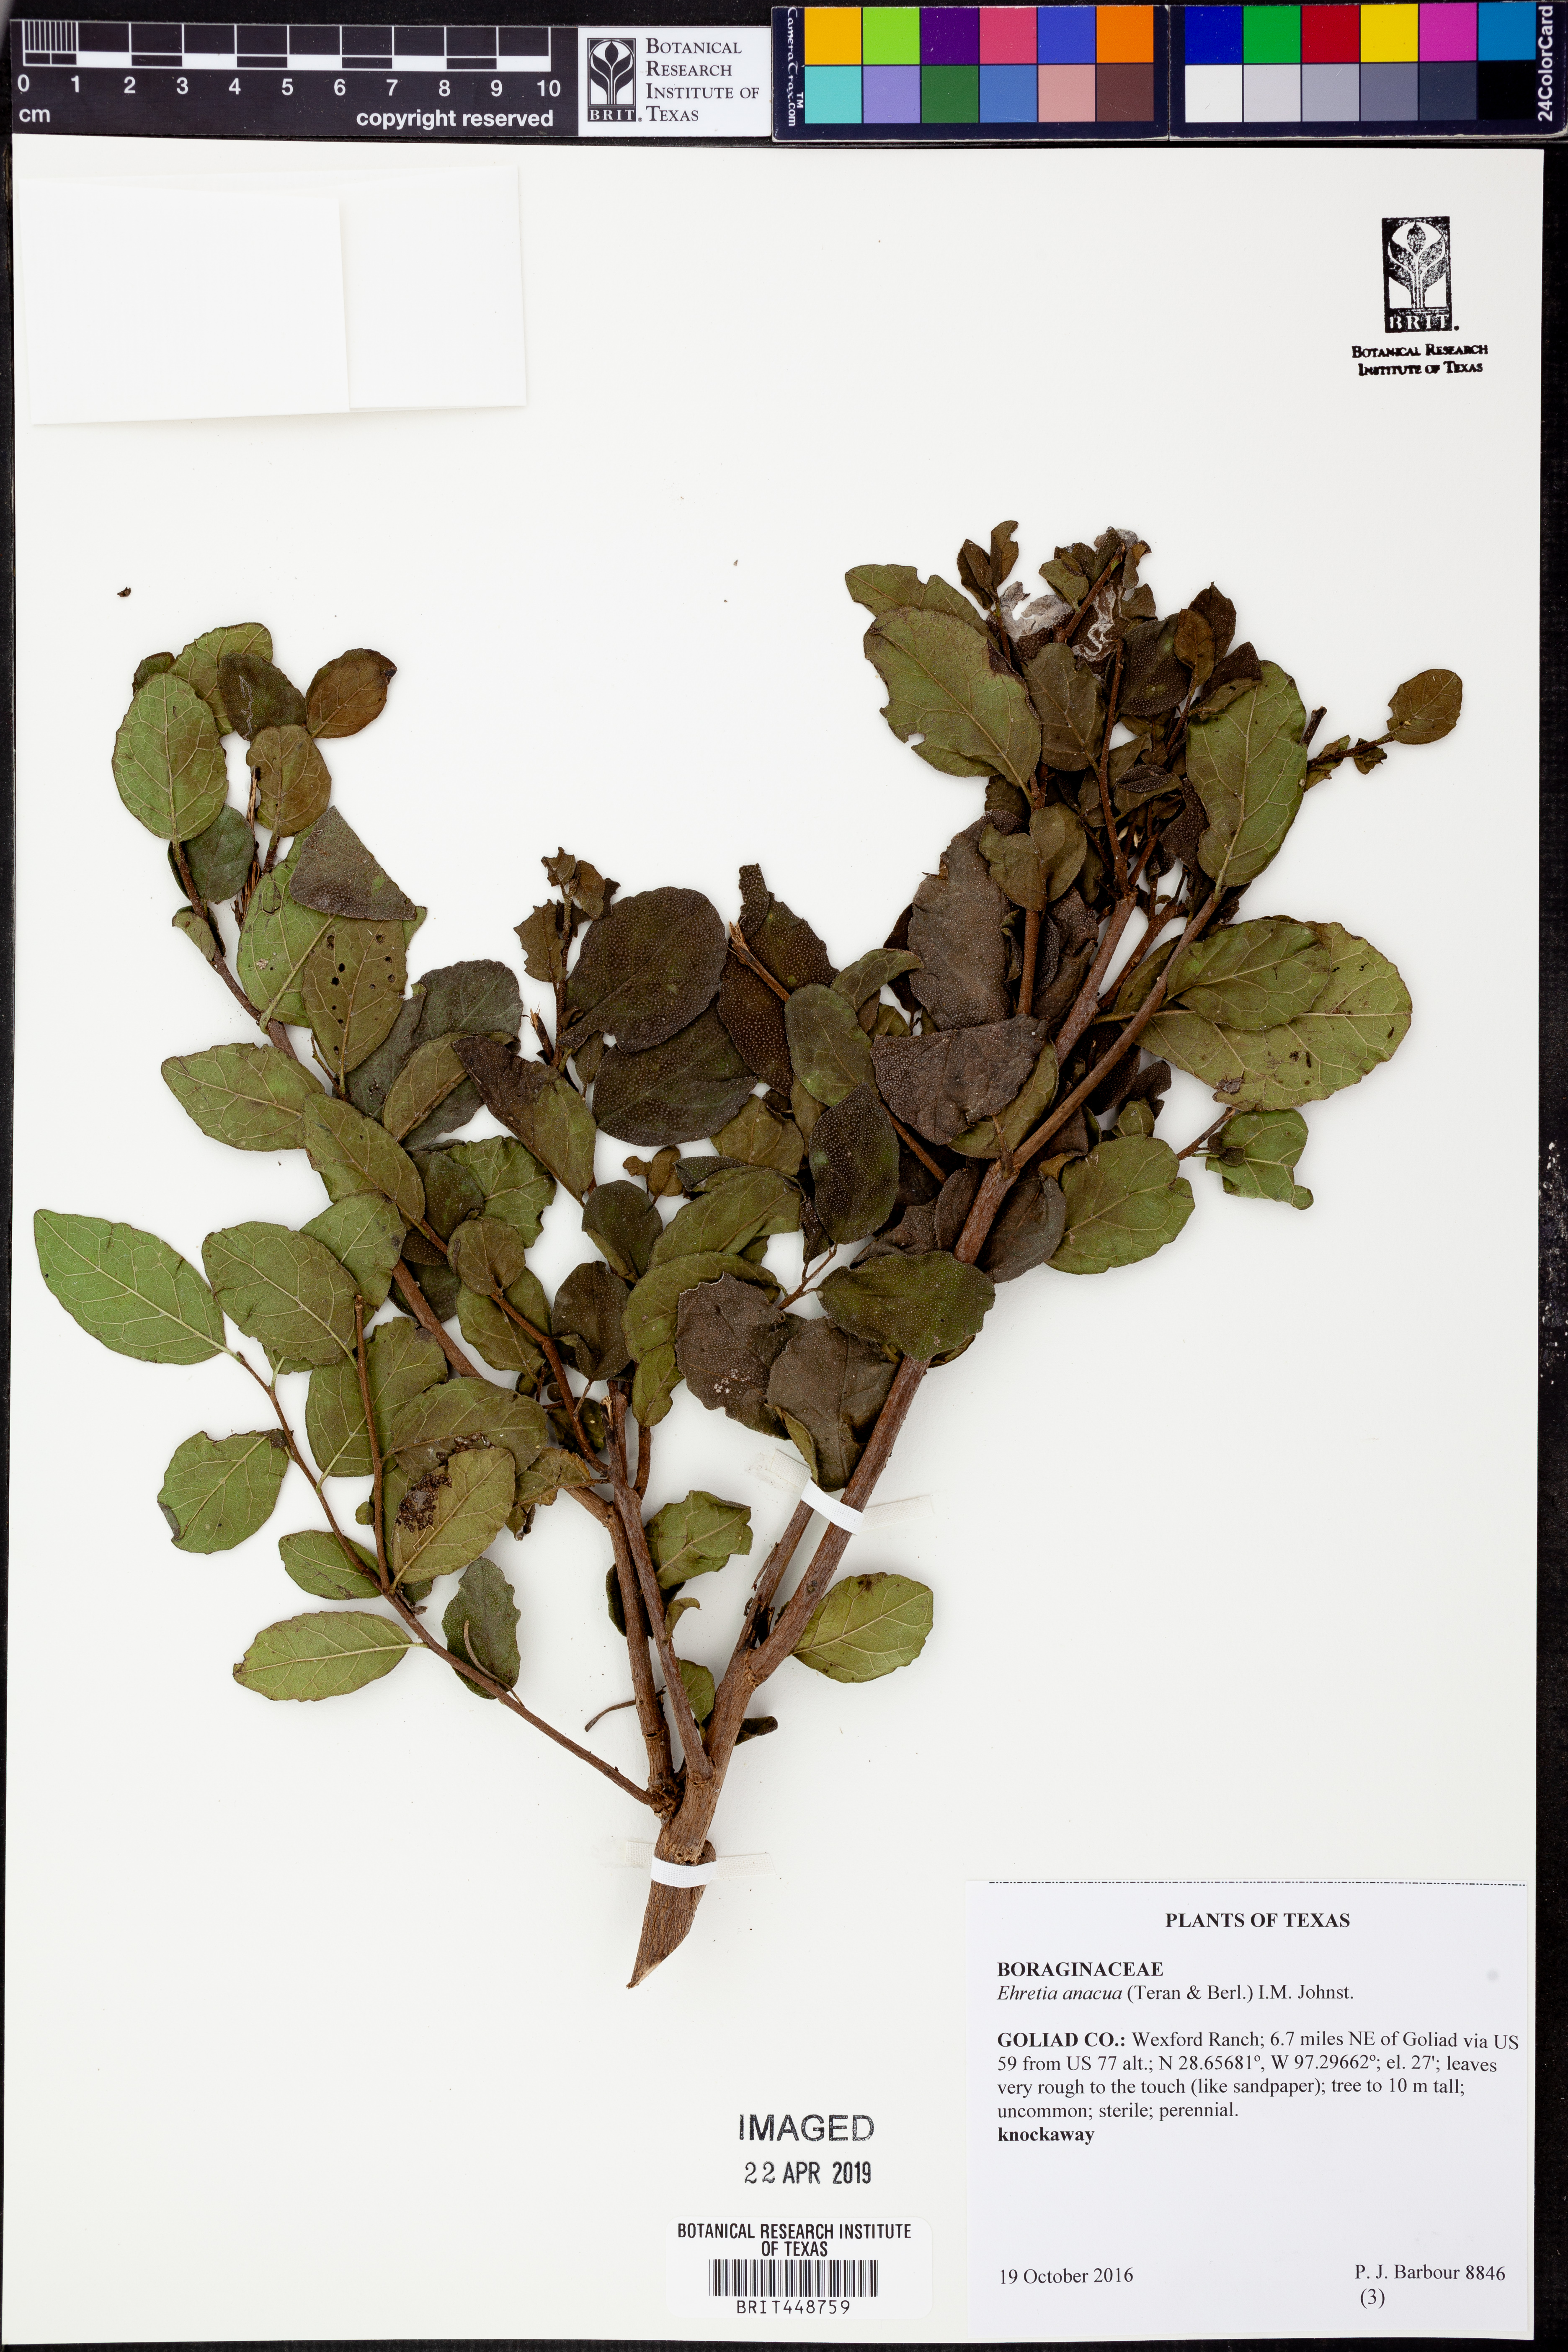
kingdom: Plantae
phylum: Tracheophyta
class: Magnoliopsida
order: Boraginales
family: Ehretiaceae
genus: Ehretia
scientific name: Ehretia anacua
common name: Sugarberry
